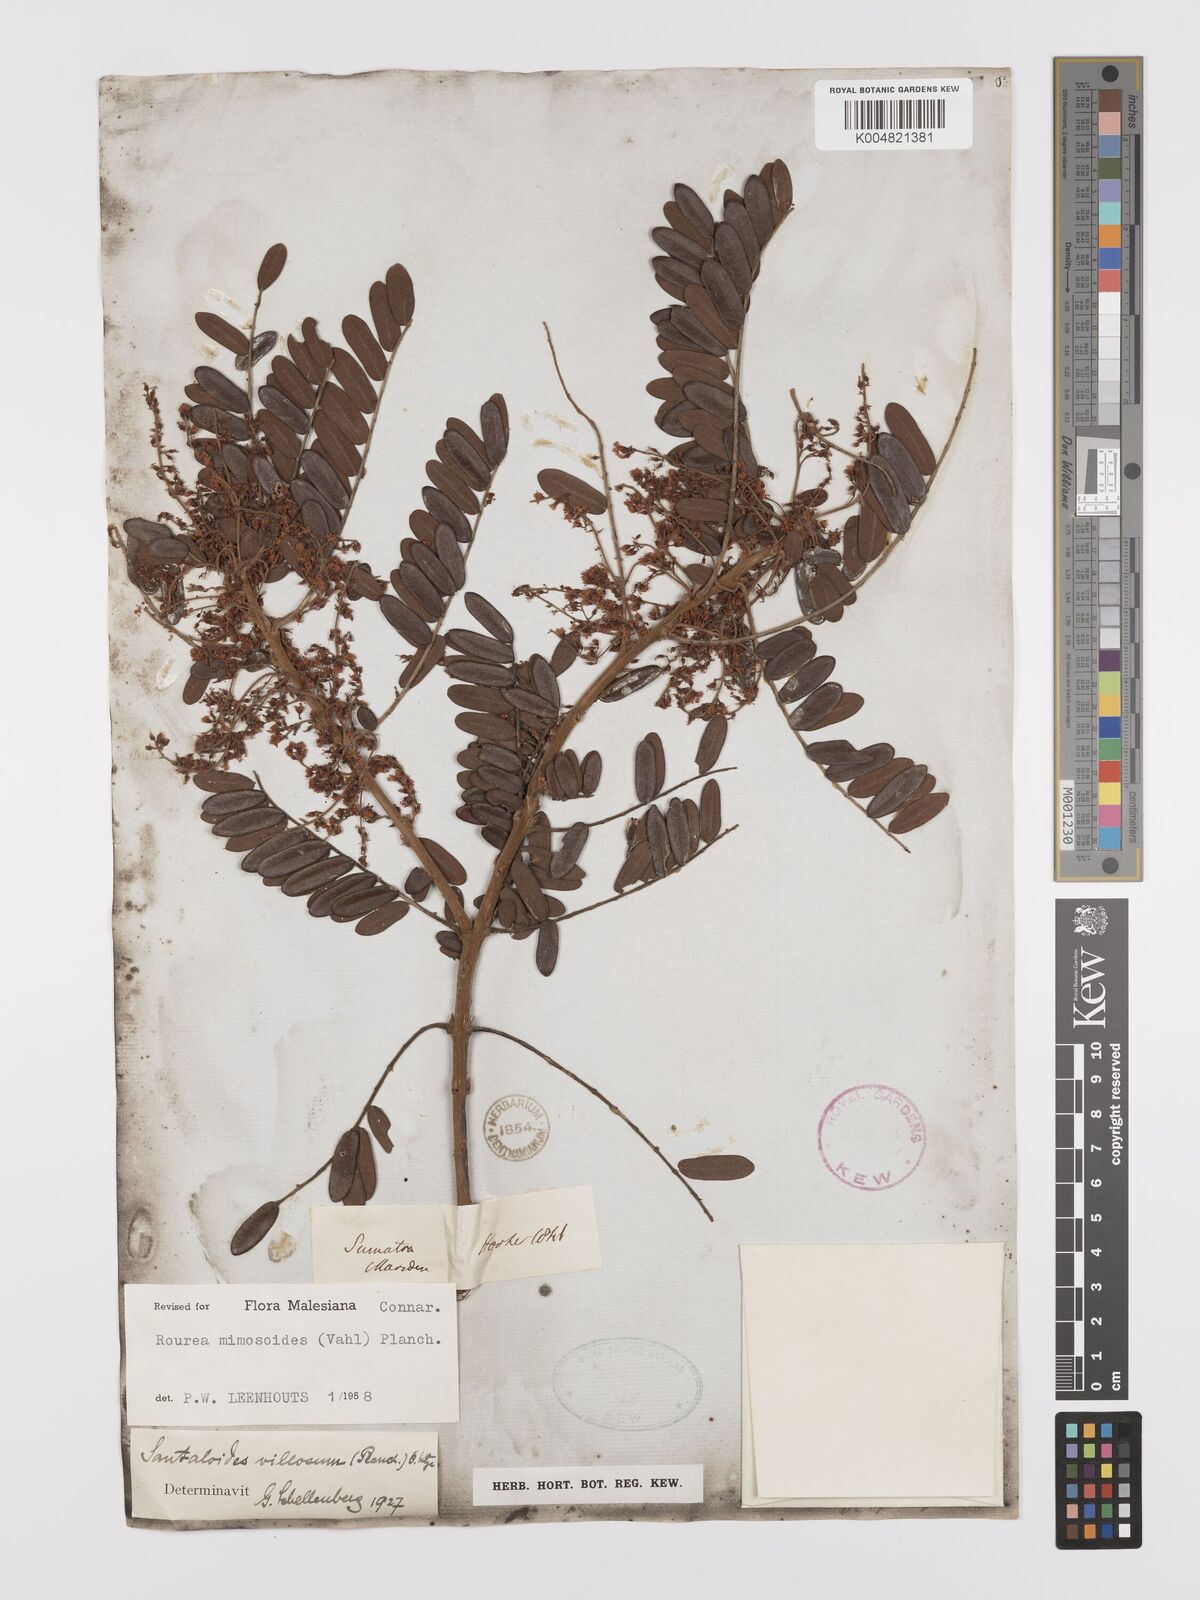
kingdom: Plantae
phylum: Tracheophyta
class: Magnoliopsida
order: Oxalidales
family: Connaraceae
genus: Rourea
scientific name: Rourea mimosoides
